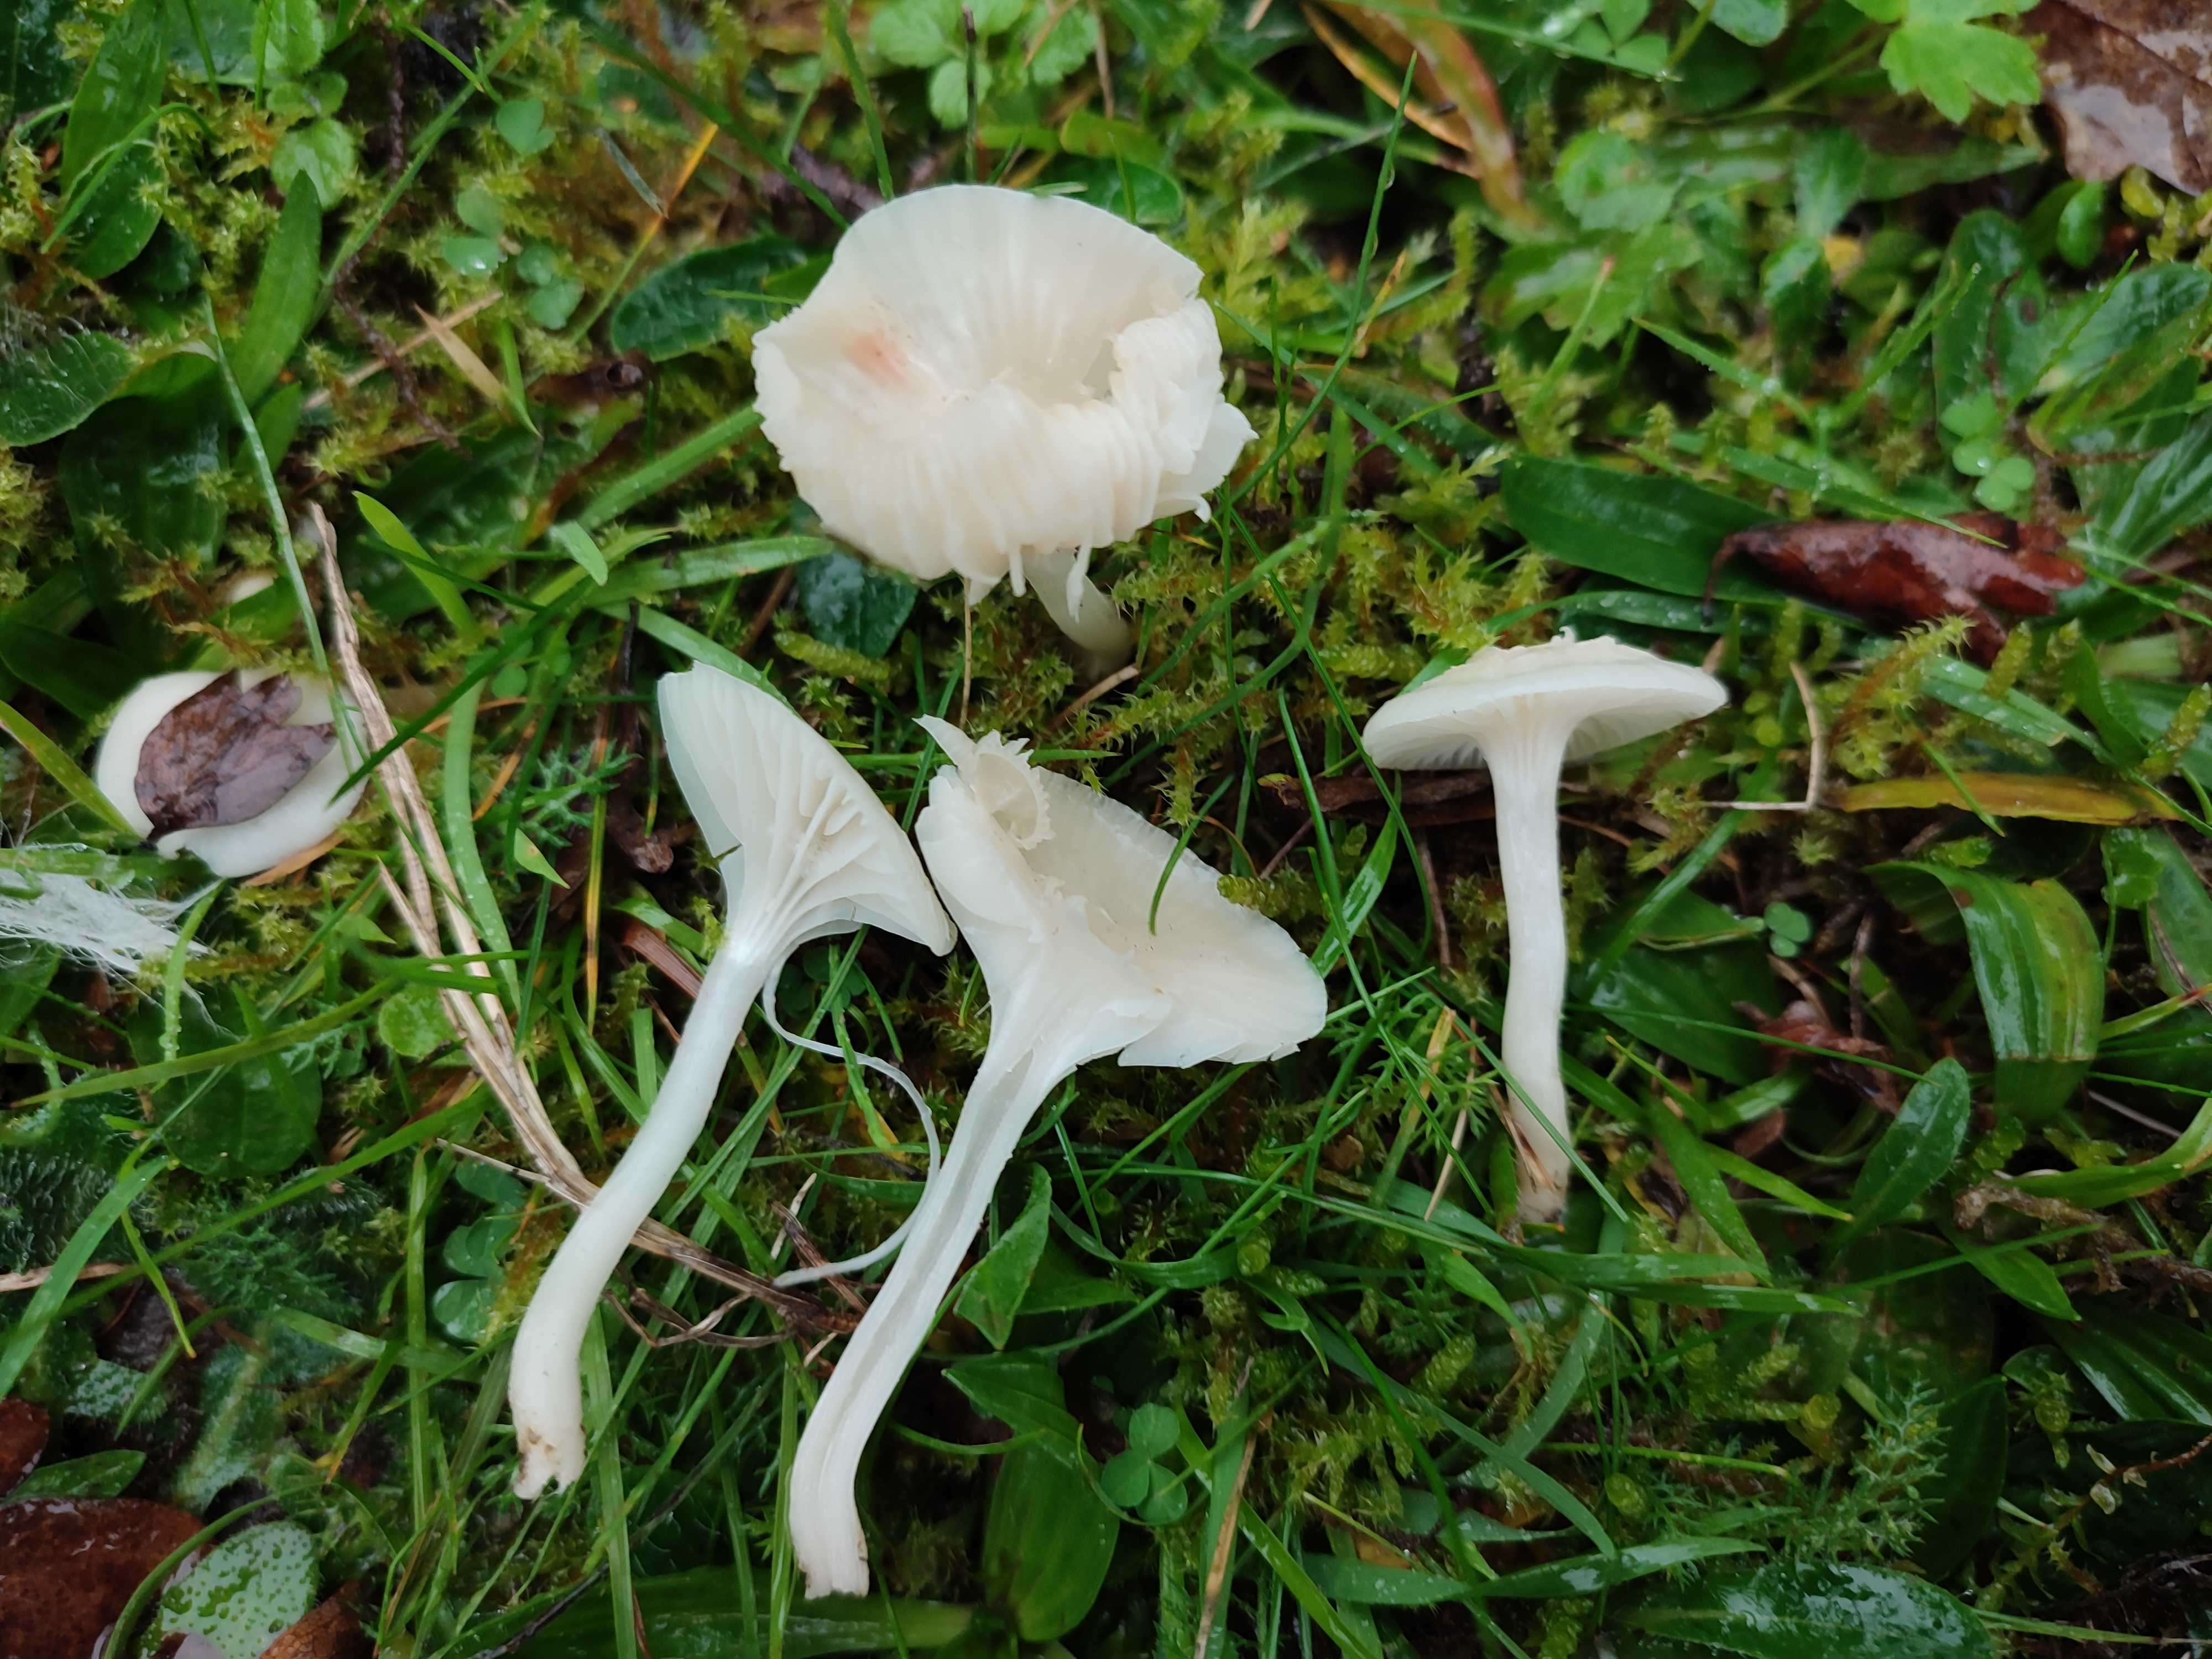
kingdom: Fungi
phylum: Basidiomycota
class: Agaricomycetes
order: Agaricales
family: Hygrophoraceae
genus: Cuphophyllus
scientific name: Cuphophyllus virgineus
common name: snehvid vokshat
